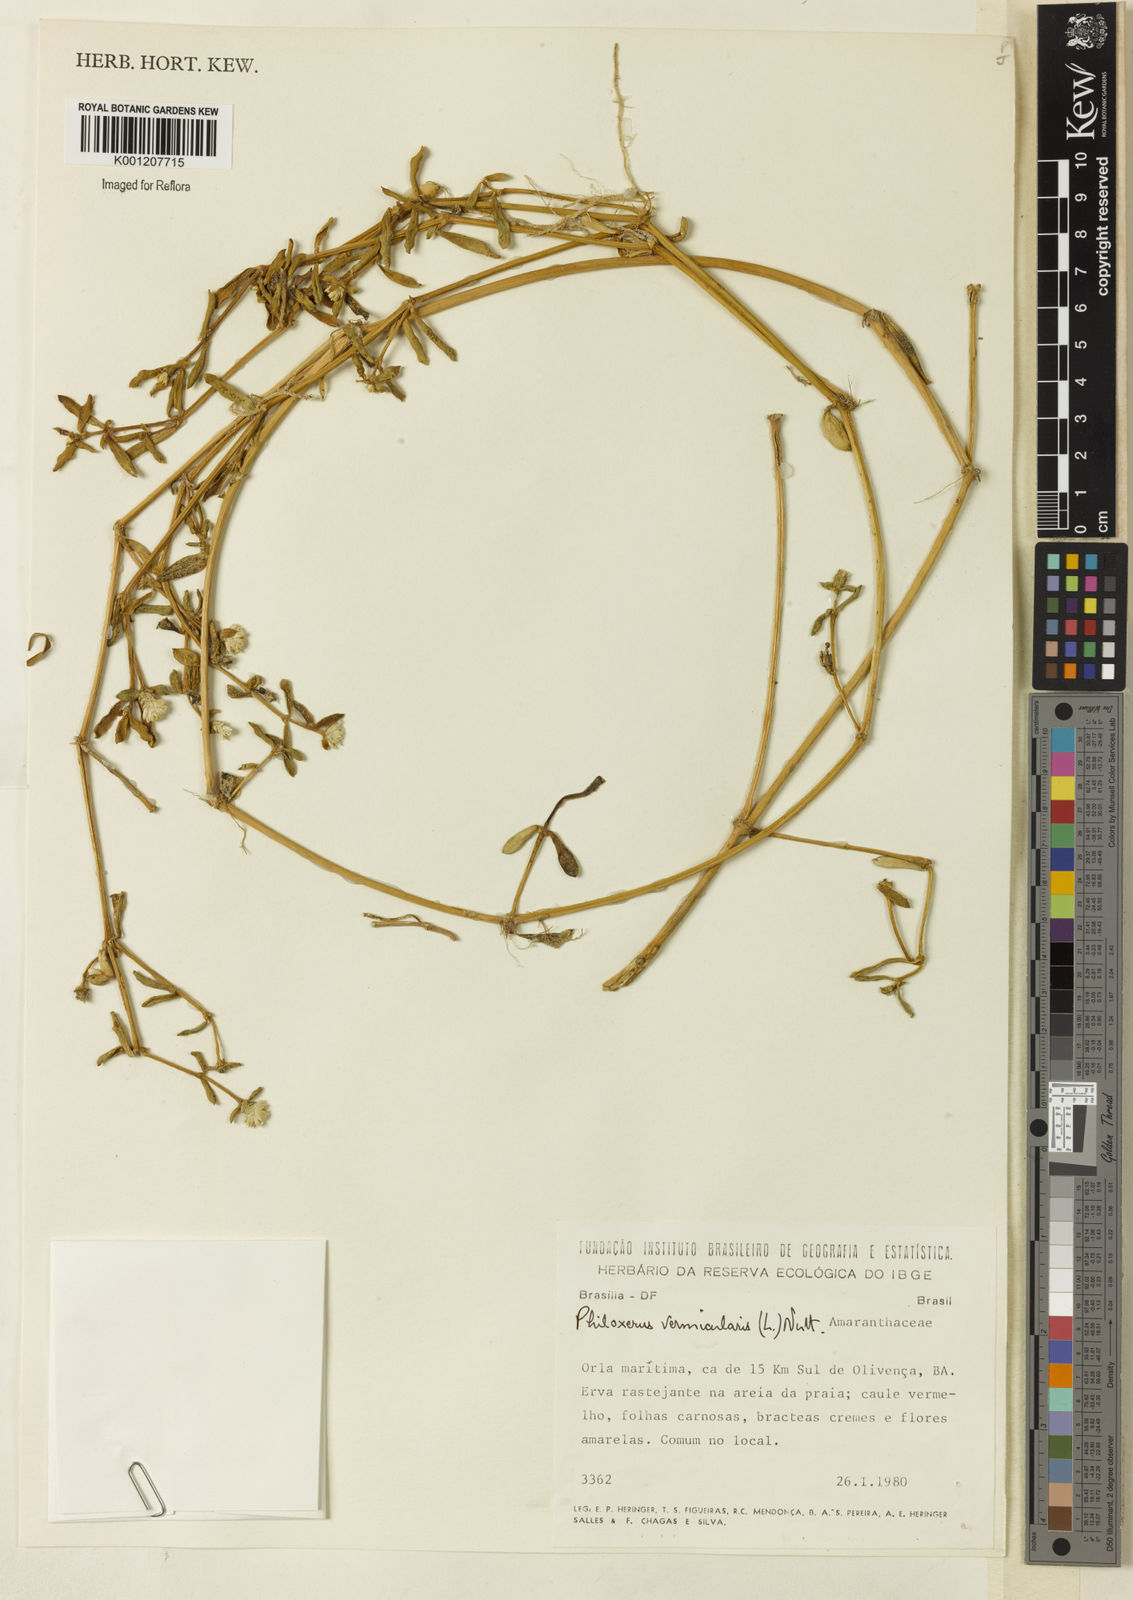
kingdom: Plantae
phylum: Tracheophyta
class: Magnoliopsida
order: Caryophyllales
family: Amaranthaceae
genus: Gomphrena
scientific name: Gomphrena vermicularis
